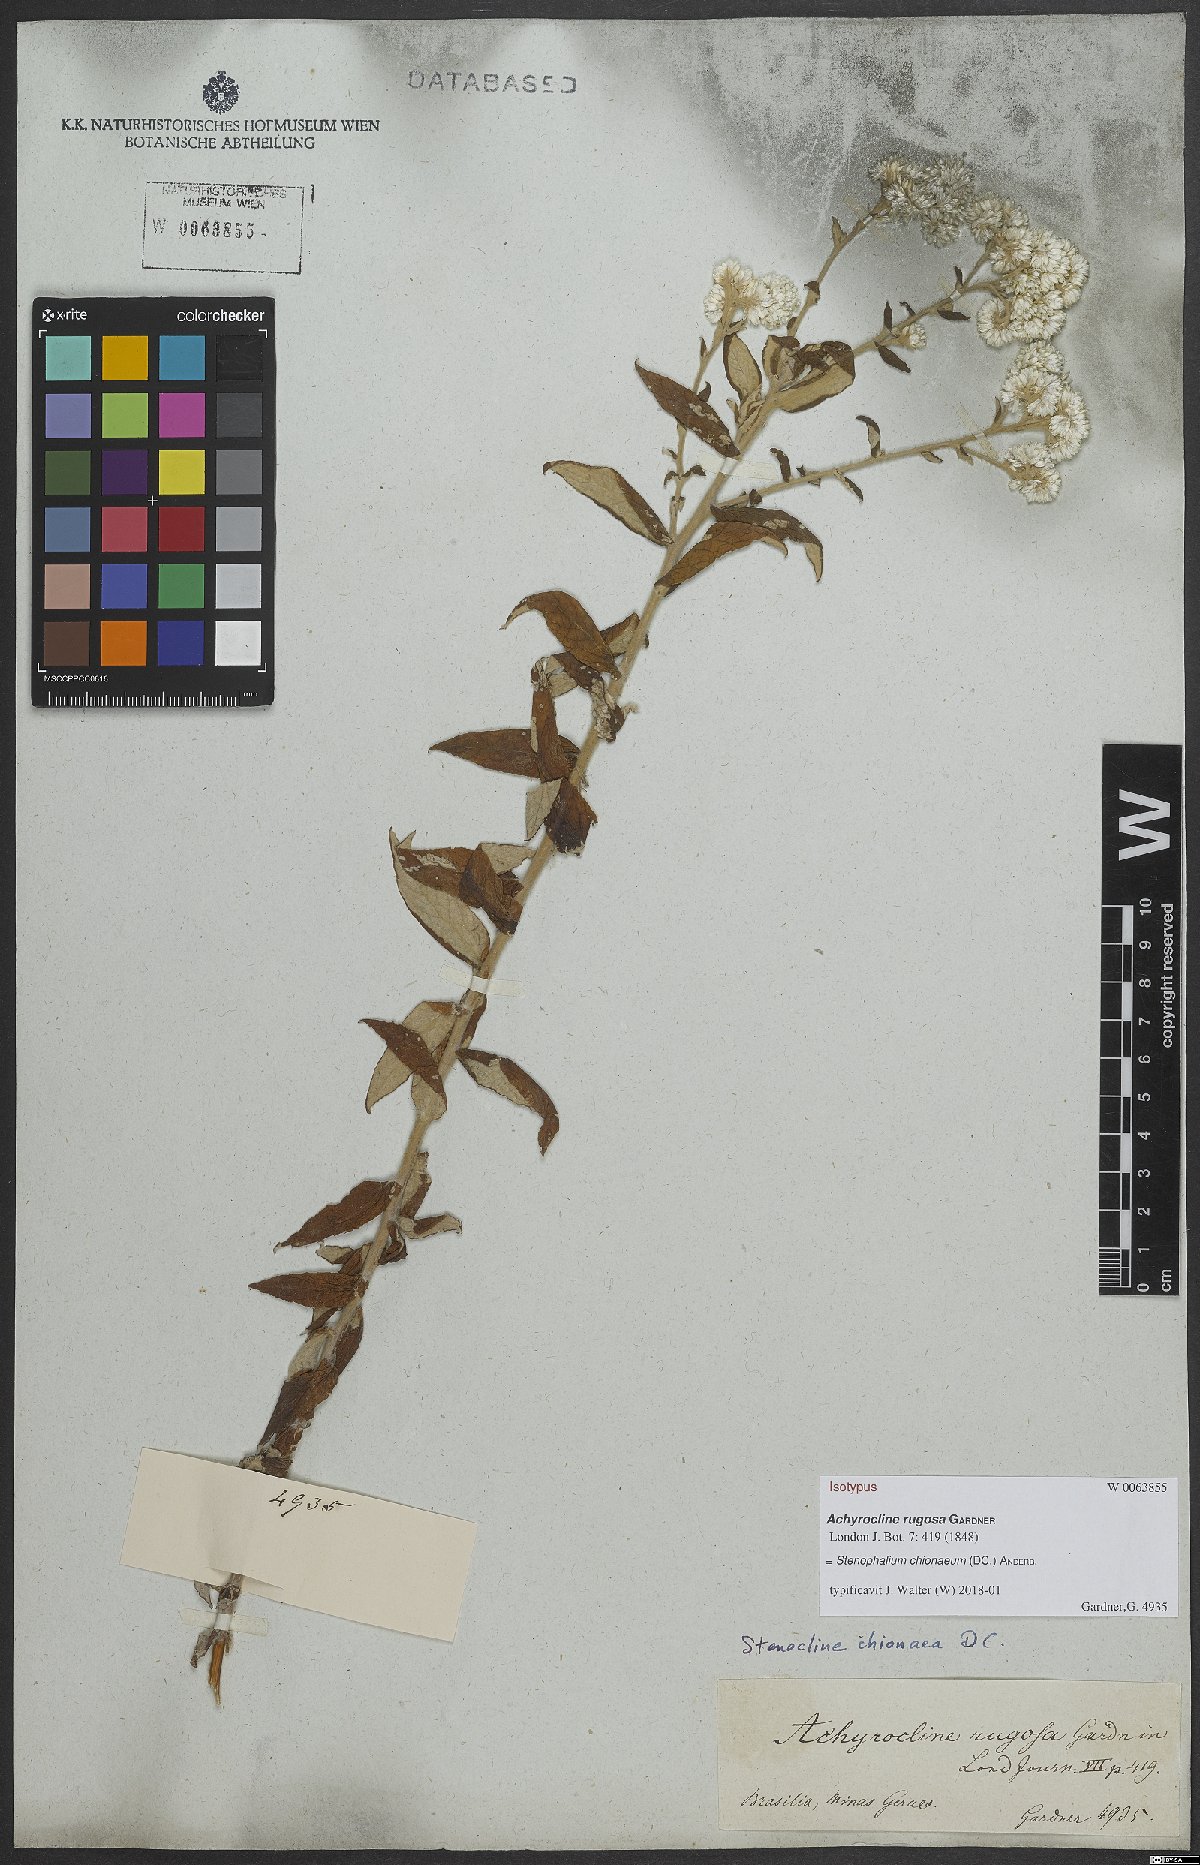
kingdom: Plantae
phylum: Tracheophyta
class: Magnoliopsida
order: Asterales
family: Asteraceae
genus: Achyrocline
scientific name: Achyrocline chionaea
